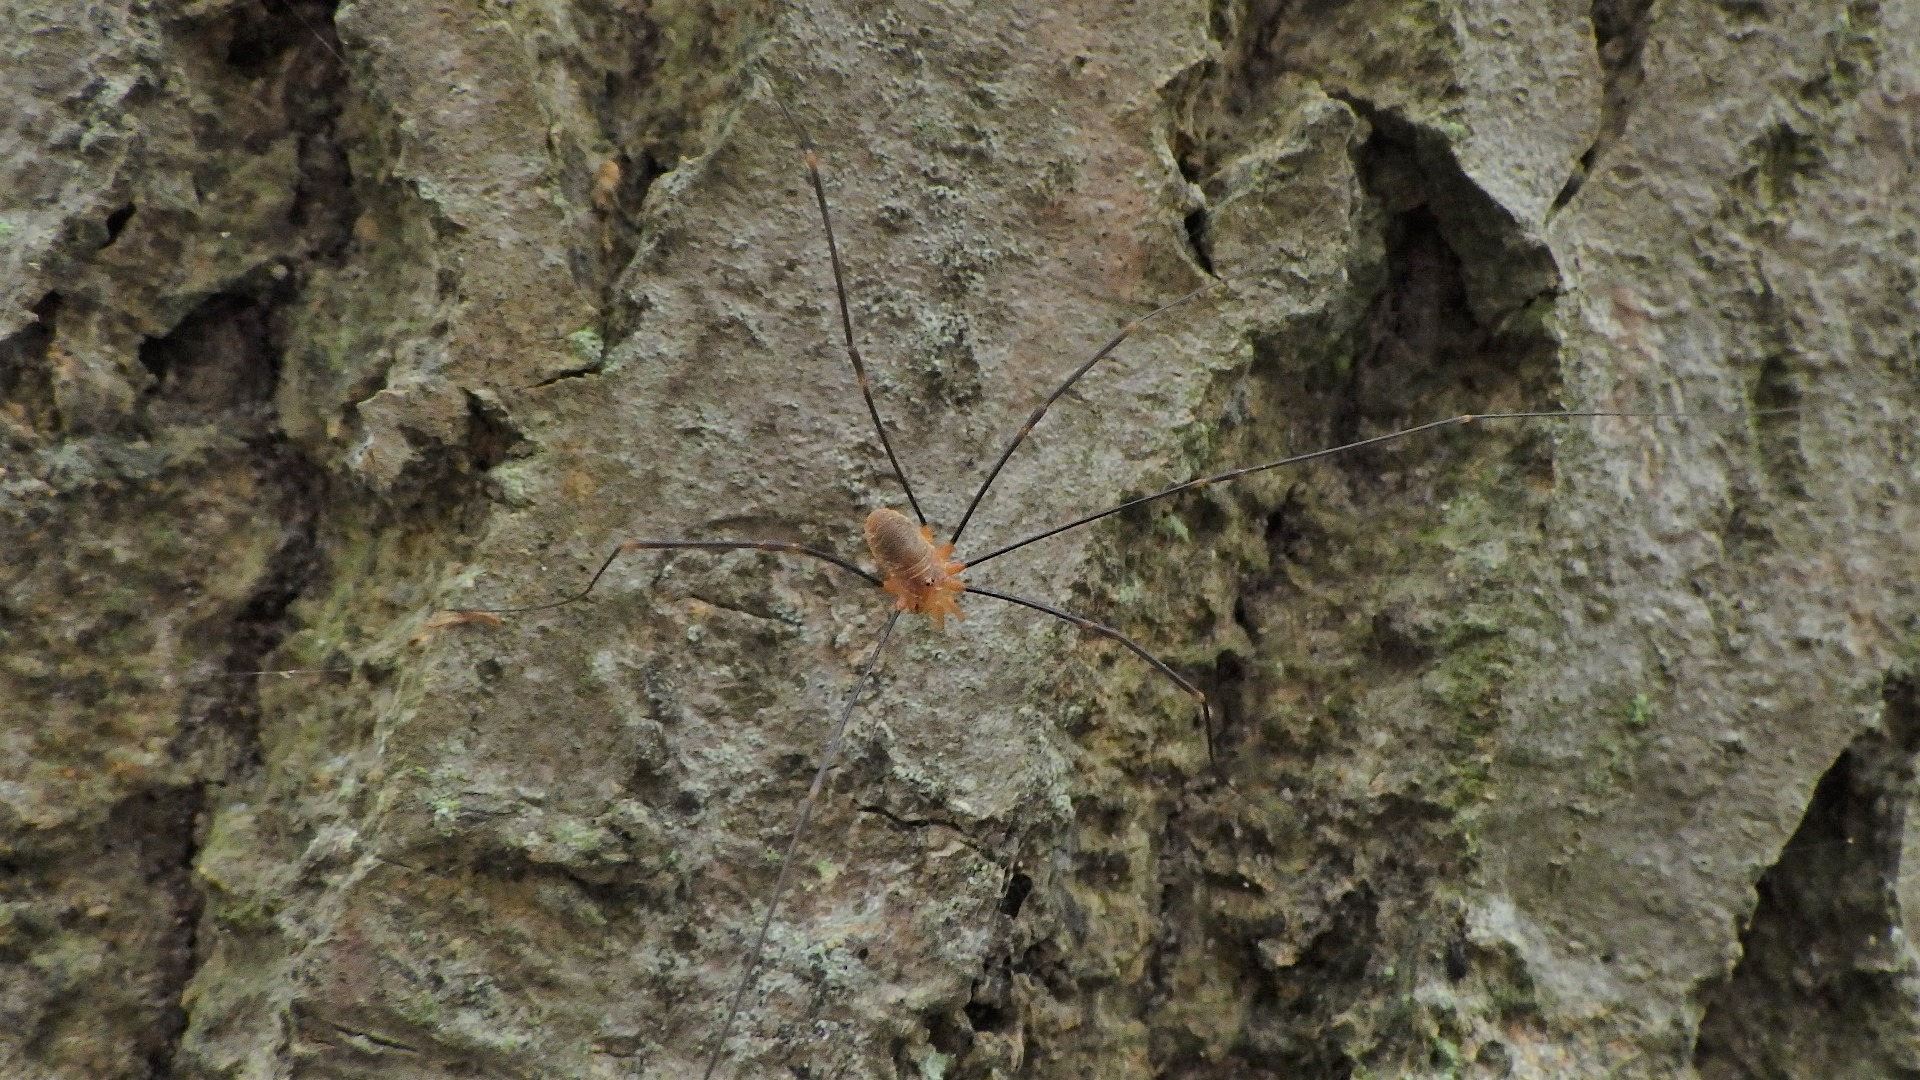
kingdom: Animalia
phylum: Arthropoda
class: Arachnida
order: Opiliones
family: Phalangiidae
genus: Opilio
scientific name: Opilio canestrinii
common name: Orange vægmejer
